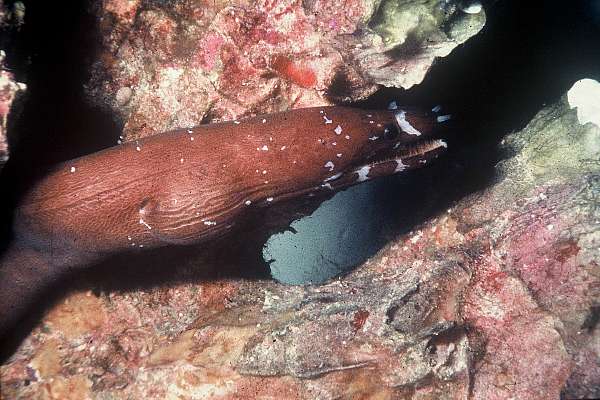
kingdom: Animalia
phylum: Chordata
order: Anguilliformes
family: Muraenidae
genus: Uropterygius
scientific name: Uropterygius kamar
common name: Moon moray
